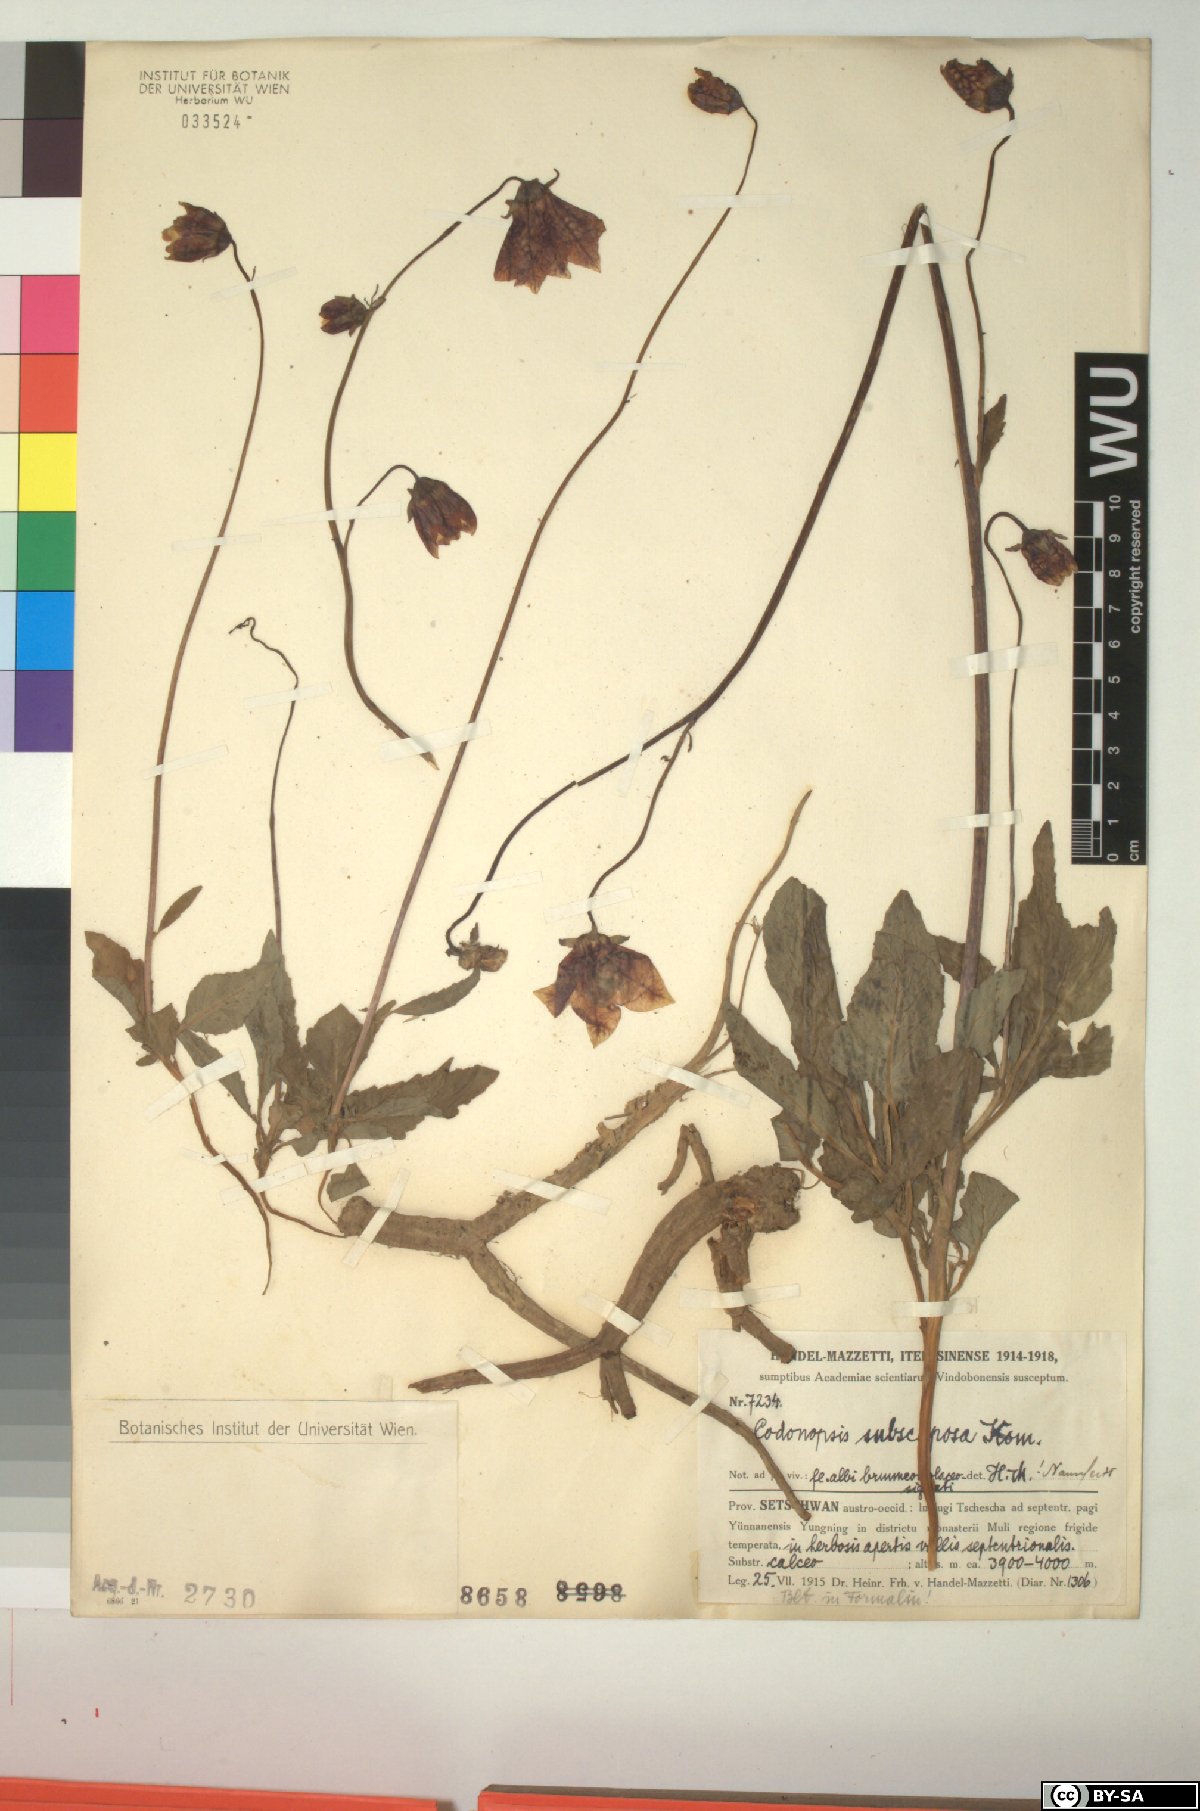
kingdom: Plantae
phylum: Tracheophyta
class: Magnoliopsida
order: Asterales
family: Campanulaceae
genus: Codonopsis
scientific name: Codonopsis subscaposa
